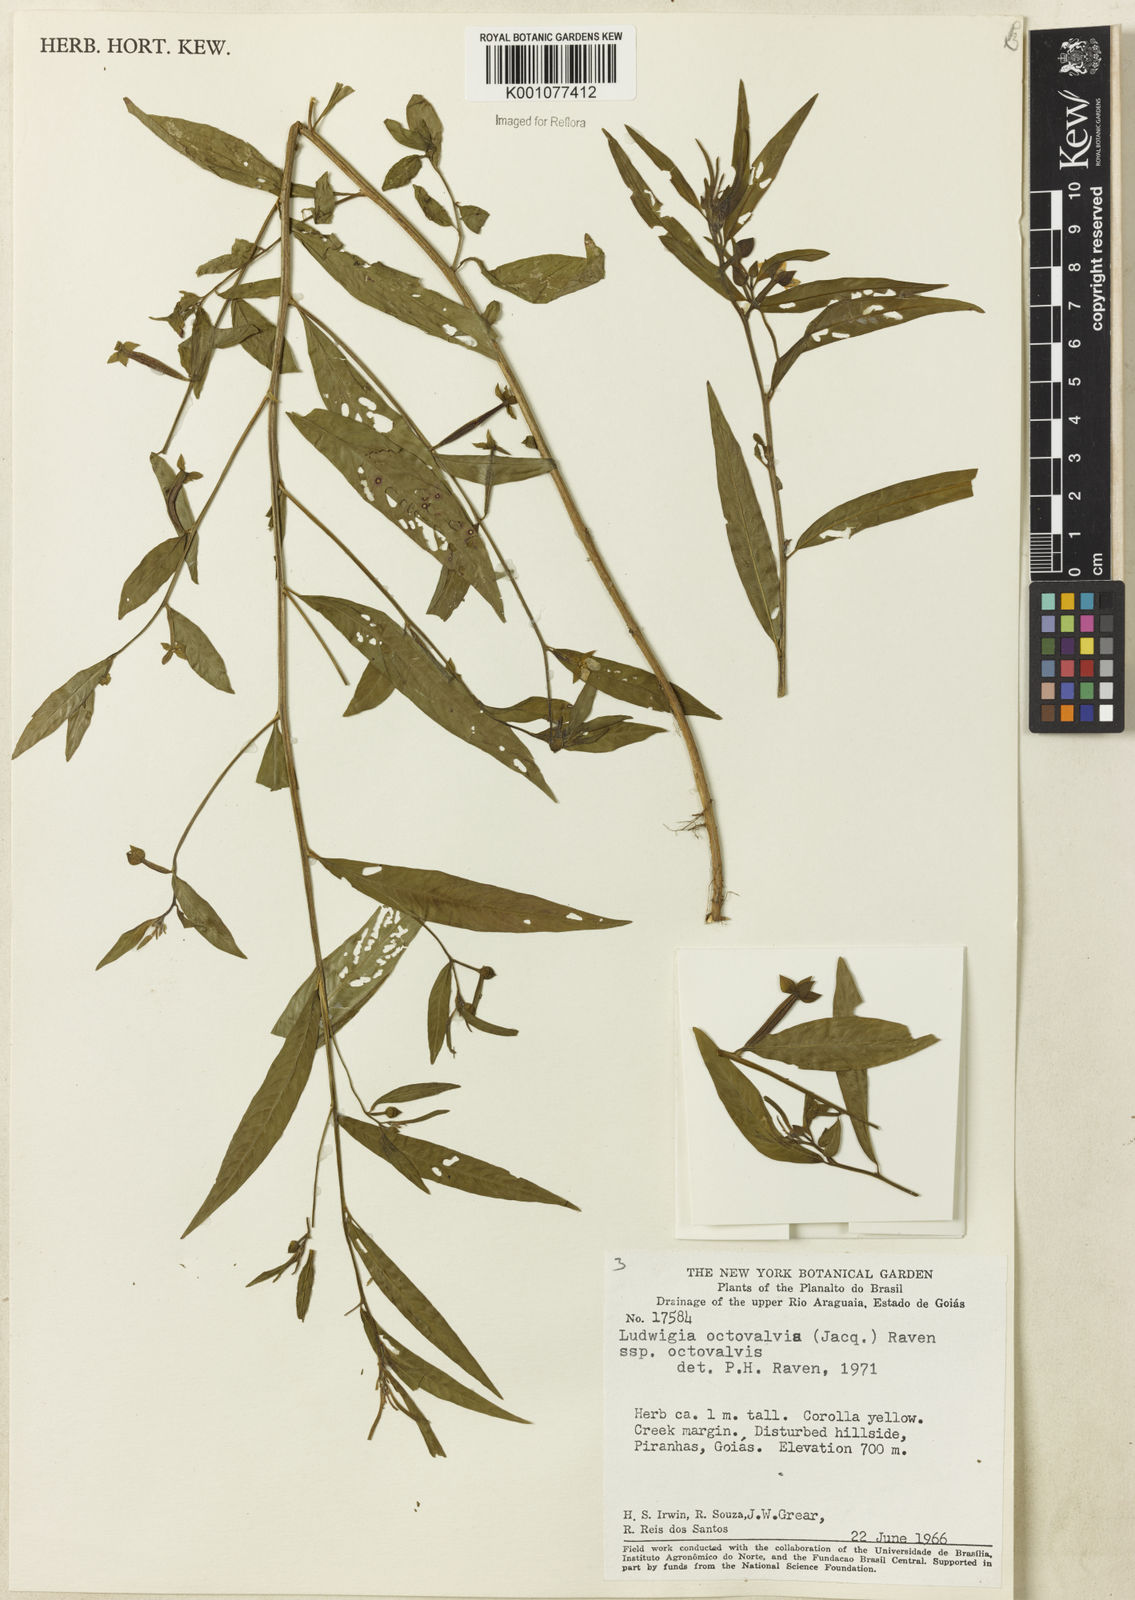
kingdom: Plantae
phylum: Tracheophyta
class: Magnoliopsida
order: Myrtales
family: Onagraceae
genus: Ludwigia
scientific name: Ludwigia octovalvis
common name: Water-primrose
